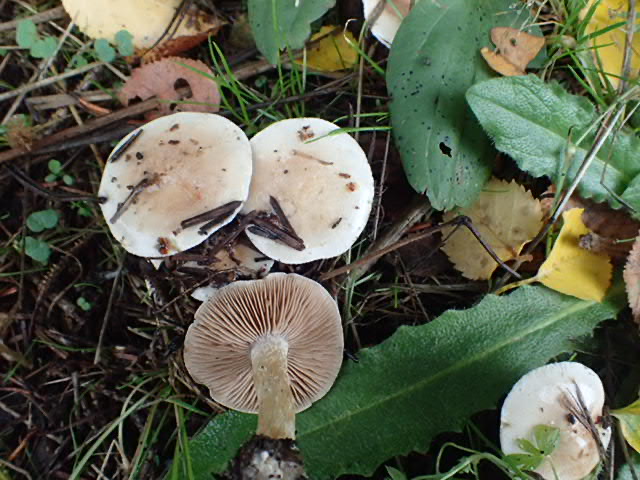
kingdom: Fungi
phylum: Basidiomycota
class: Agaricomycetes
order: Agaricales
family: Hymenogastraceae
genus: Hebeloma
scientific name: Hebeloma
